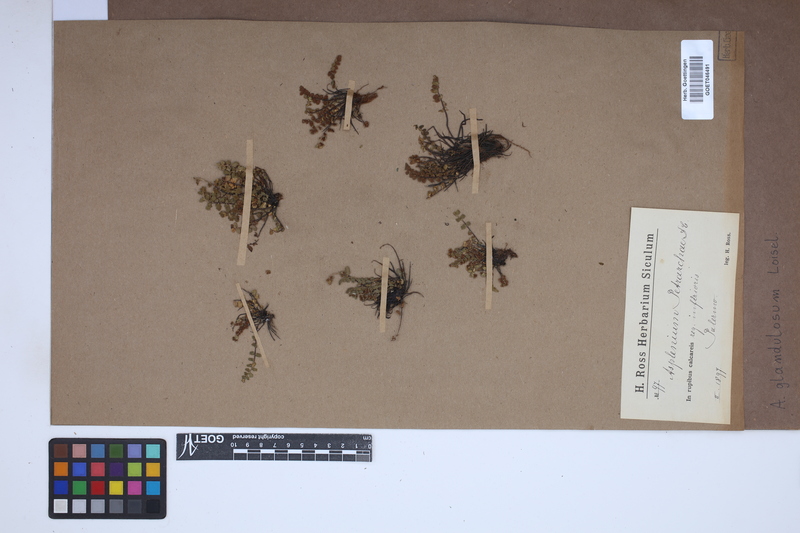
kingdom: Plantae
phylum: Tracheophyta
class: Polypodiopsida
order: Polypodiales
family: Aspleniaceae
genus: Asplenium
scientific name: Asplenium petrarchae
